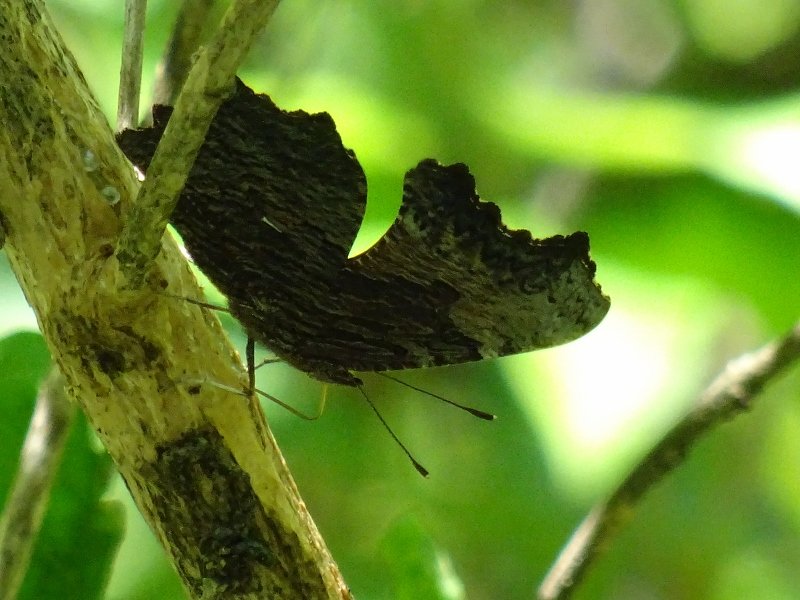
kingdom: Animalia
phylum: Arthropoda
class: Insecta
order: Lepidoptera
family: Nymphalidae
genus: Polygonia
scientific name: Polygonia progne
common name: Gray Comma
